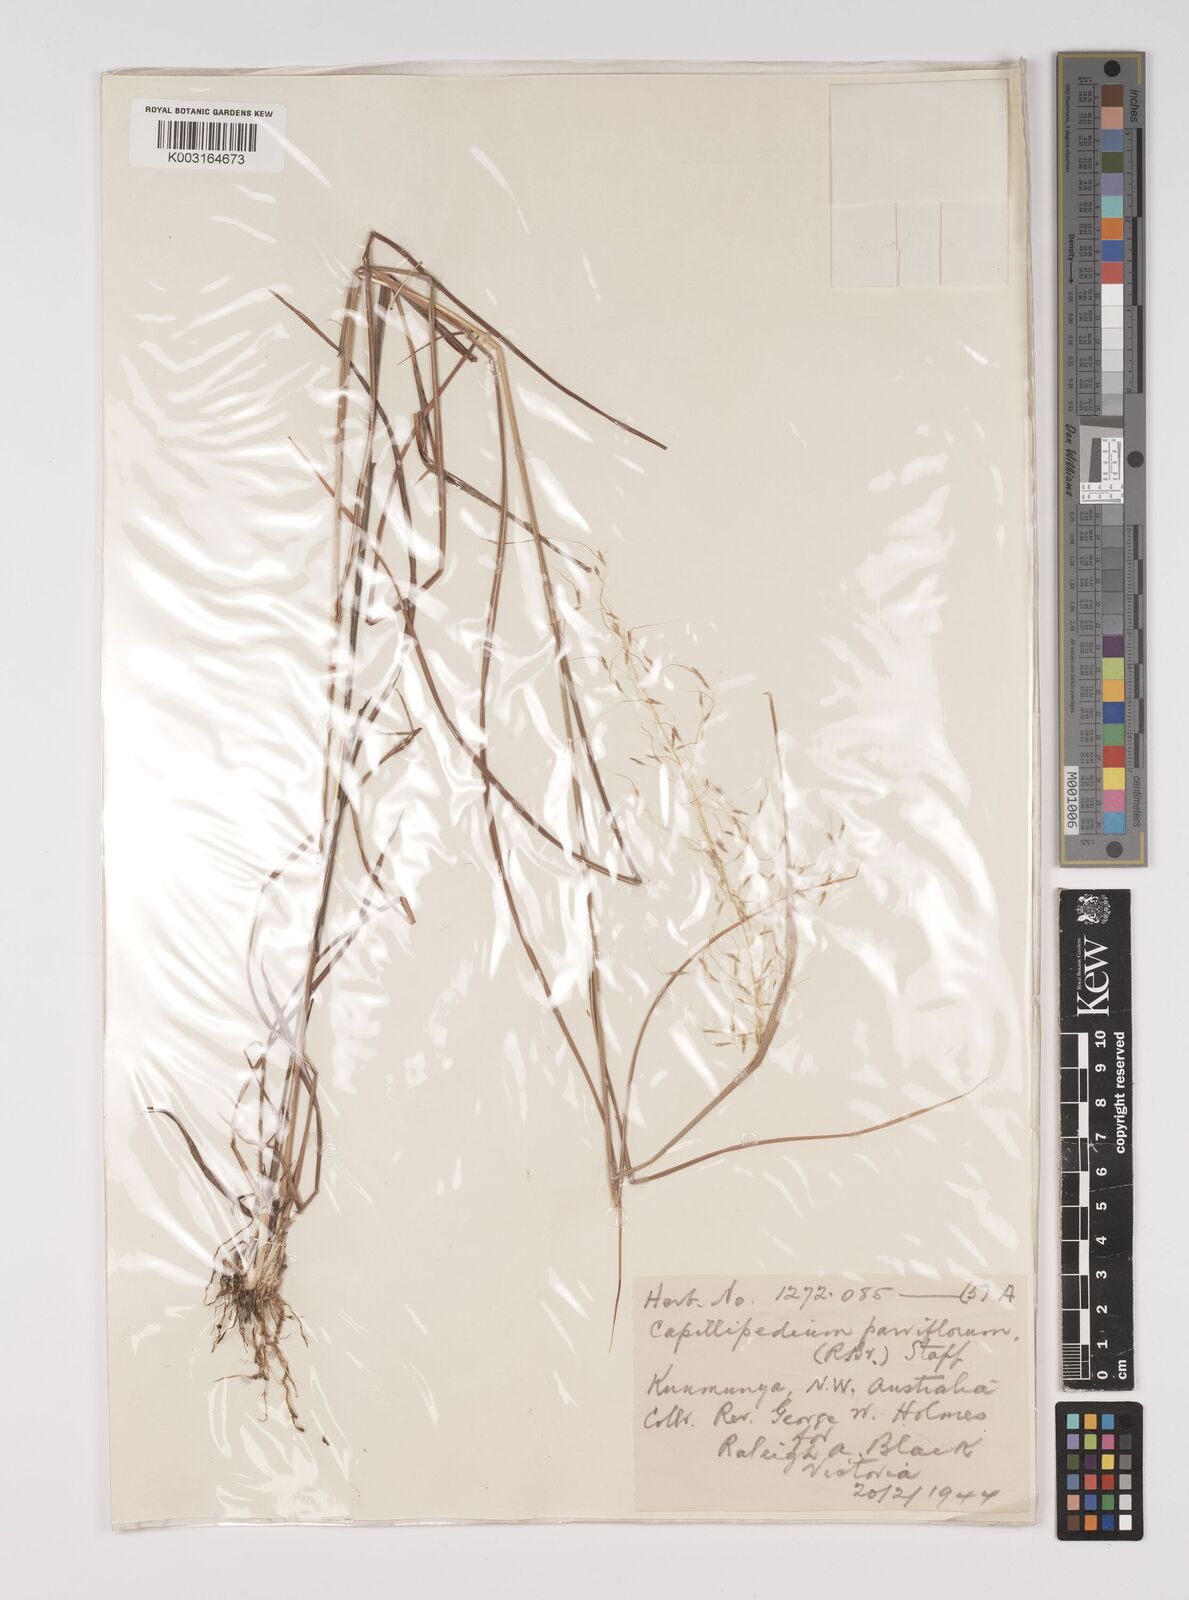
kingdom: Plantae
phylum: Tracheophyta
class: Liliopsida
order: Poales
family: Poaceae
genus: Capillipedium
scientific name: Capillipedium parviflorum
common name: Golden-beard
